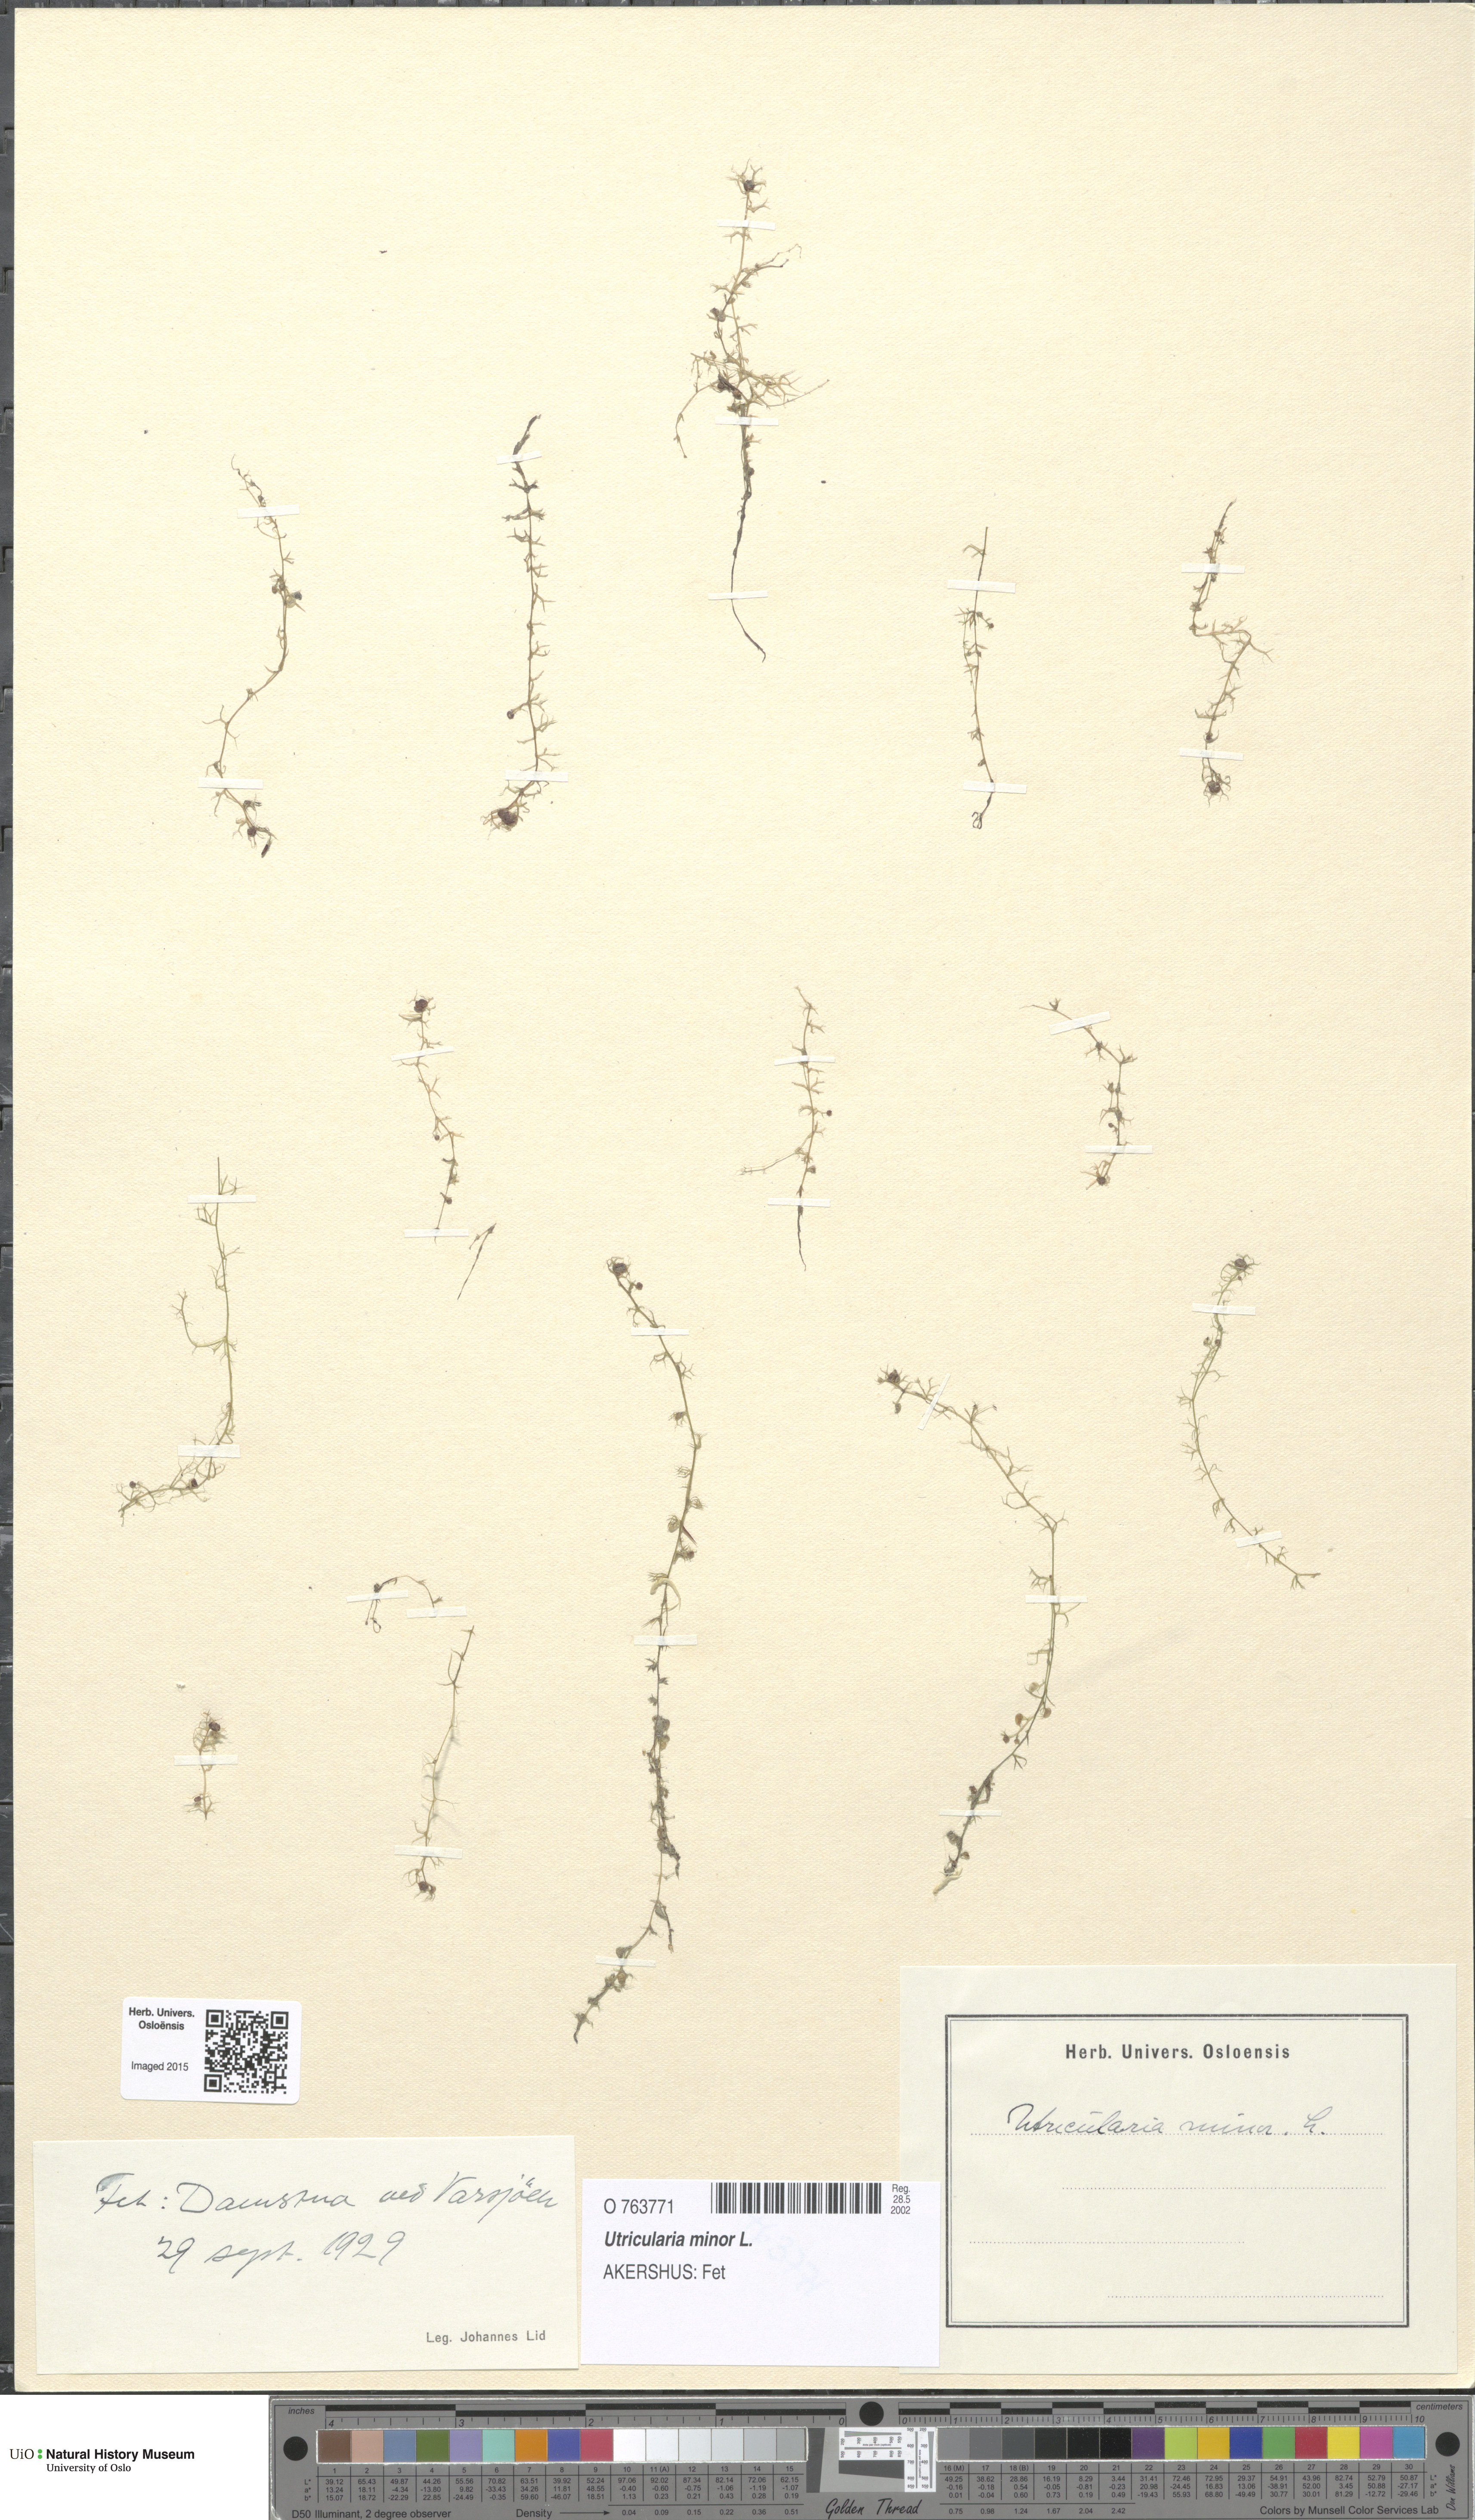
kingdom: Plantae
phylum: Tracheophyta
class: Magnoliopsida
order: Lamiales
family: Lentibulariaceae
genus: Utricularia
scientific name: Utricularia minor
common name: Lesser bladderwort
